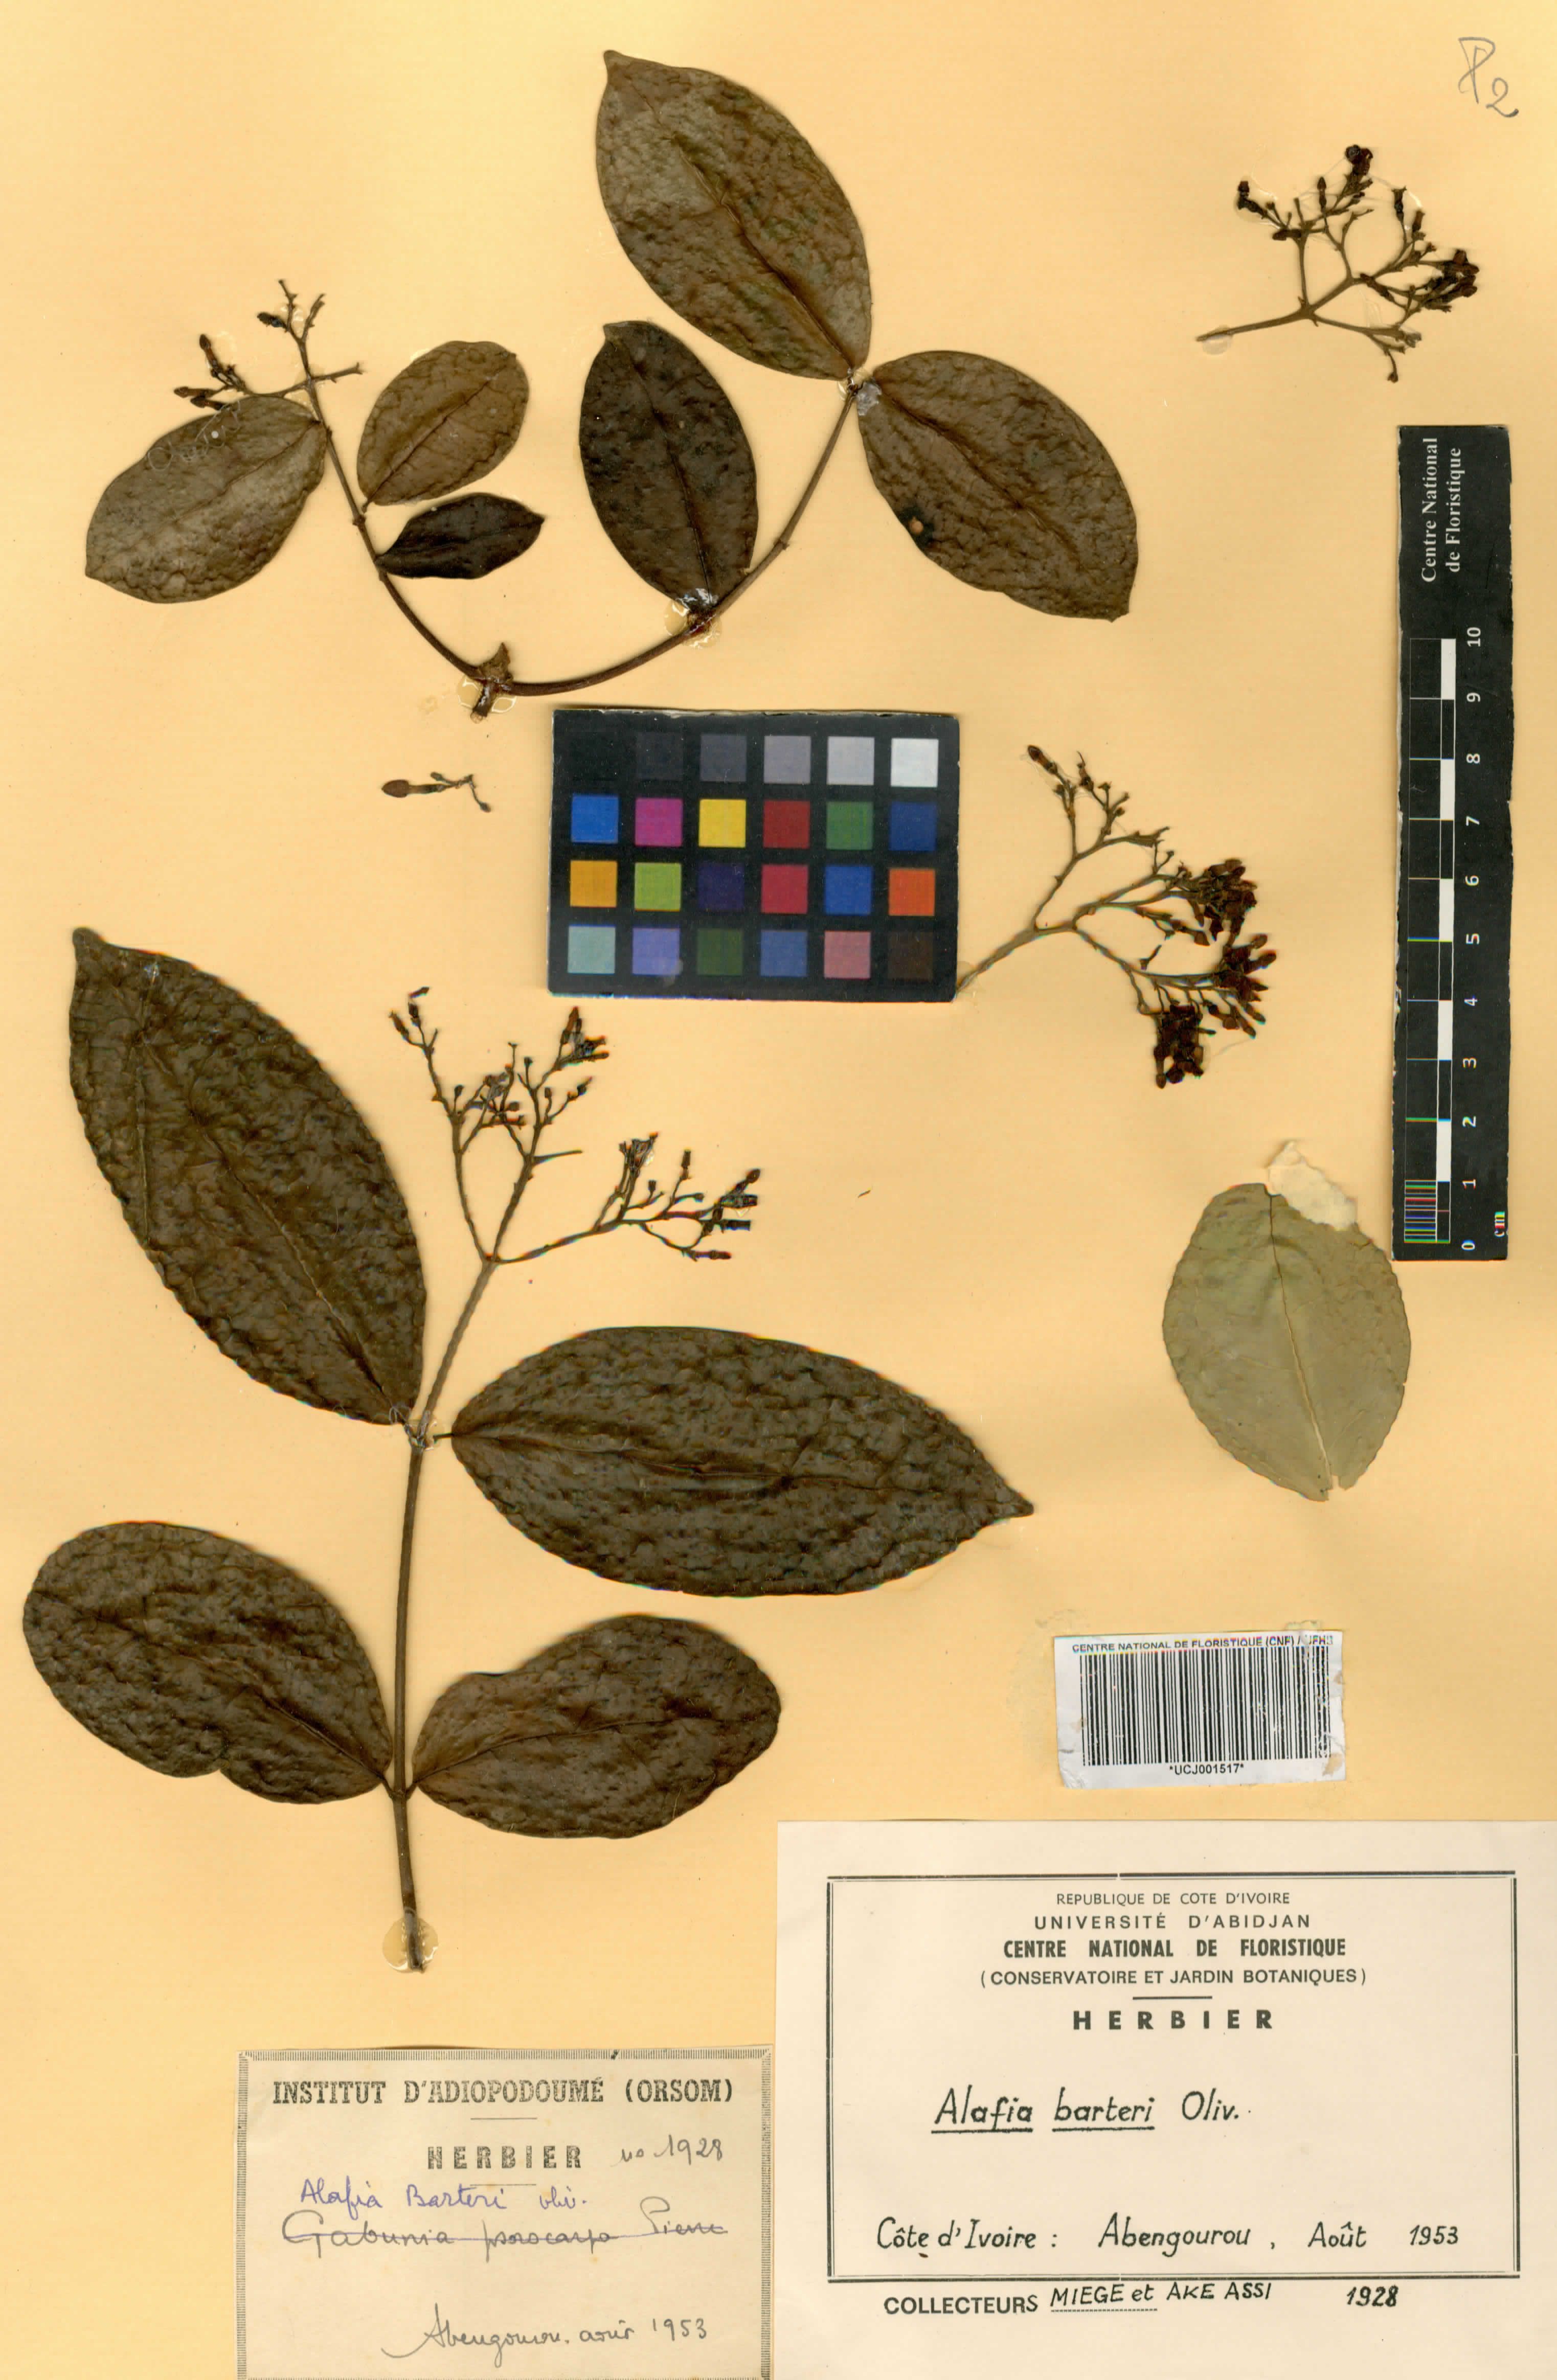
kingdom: Plantae
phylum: Tracheophyta
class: Magnoliopsida
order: Gentianales
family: Apocynaceae
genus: Alafia
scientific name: Alafia barteri
